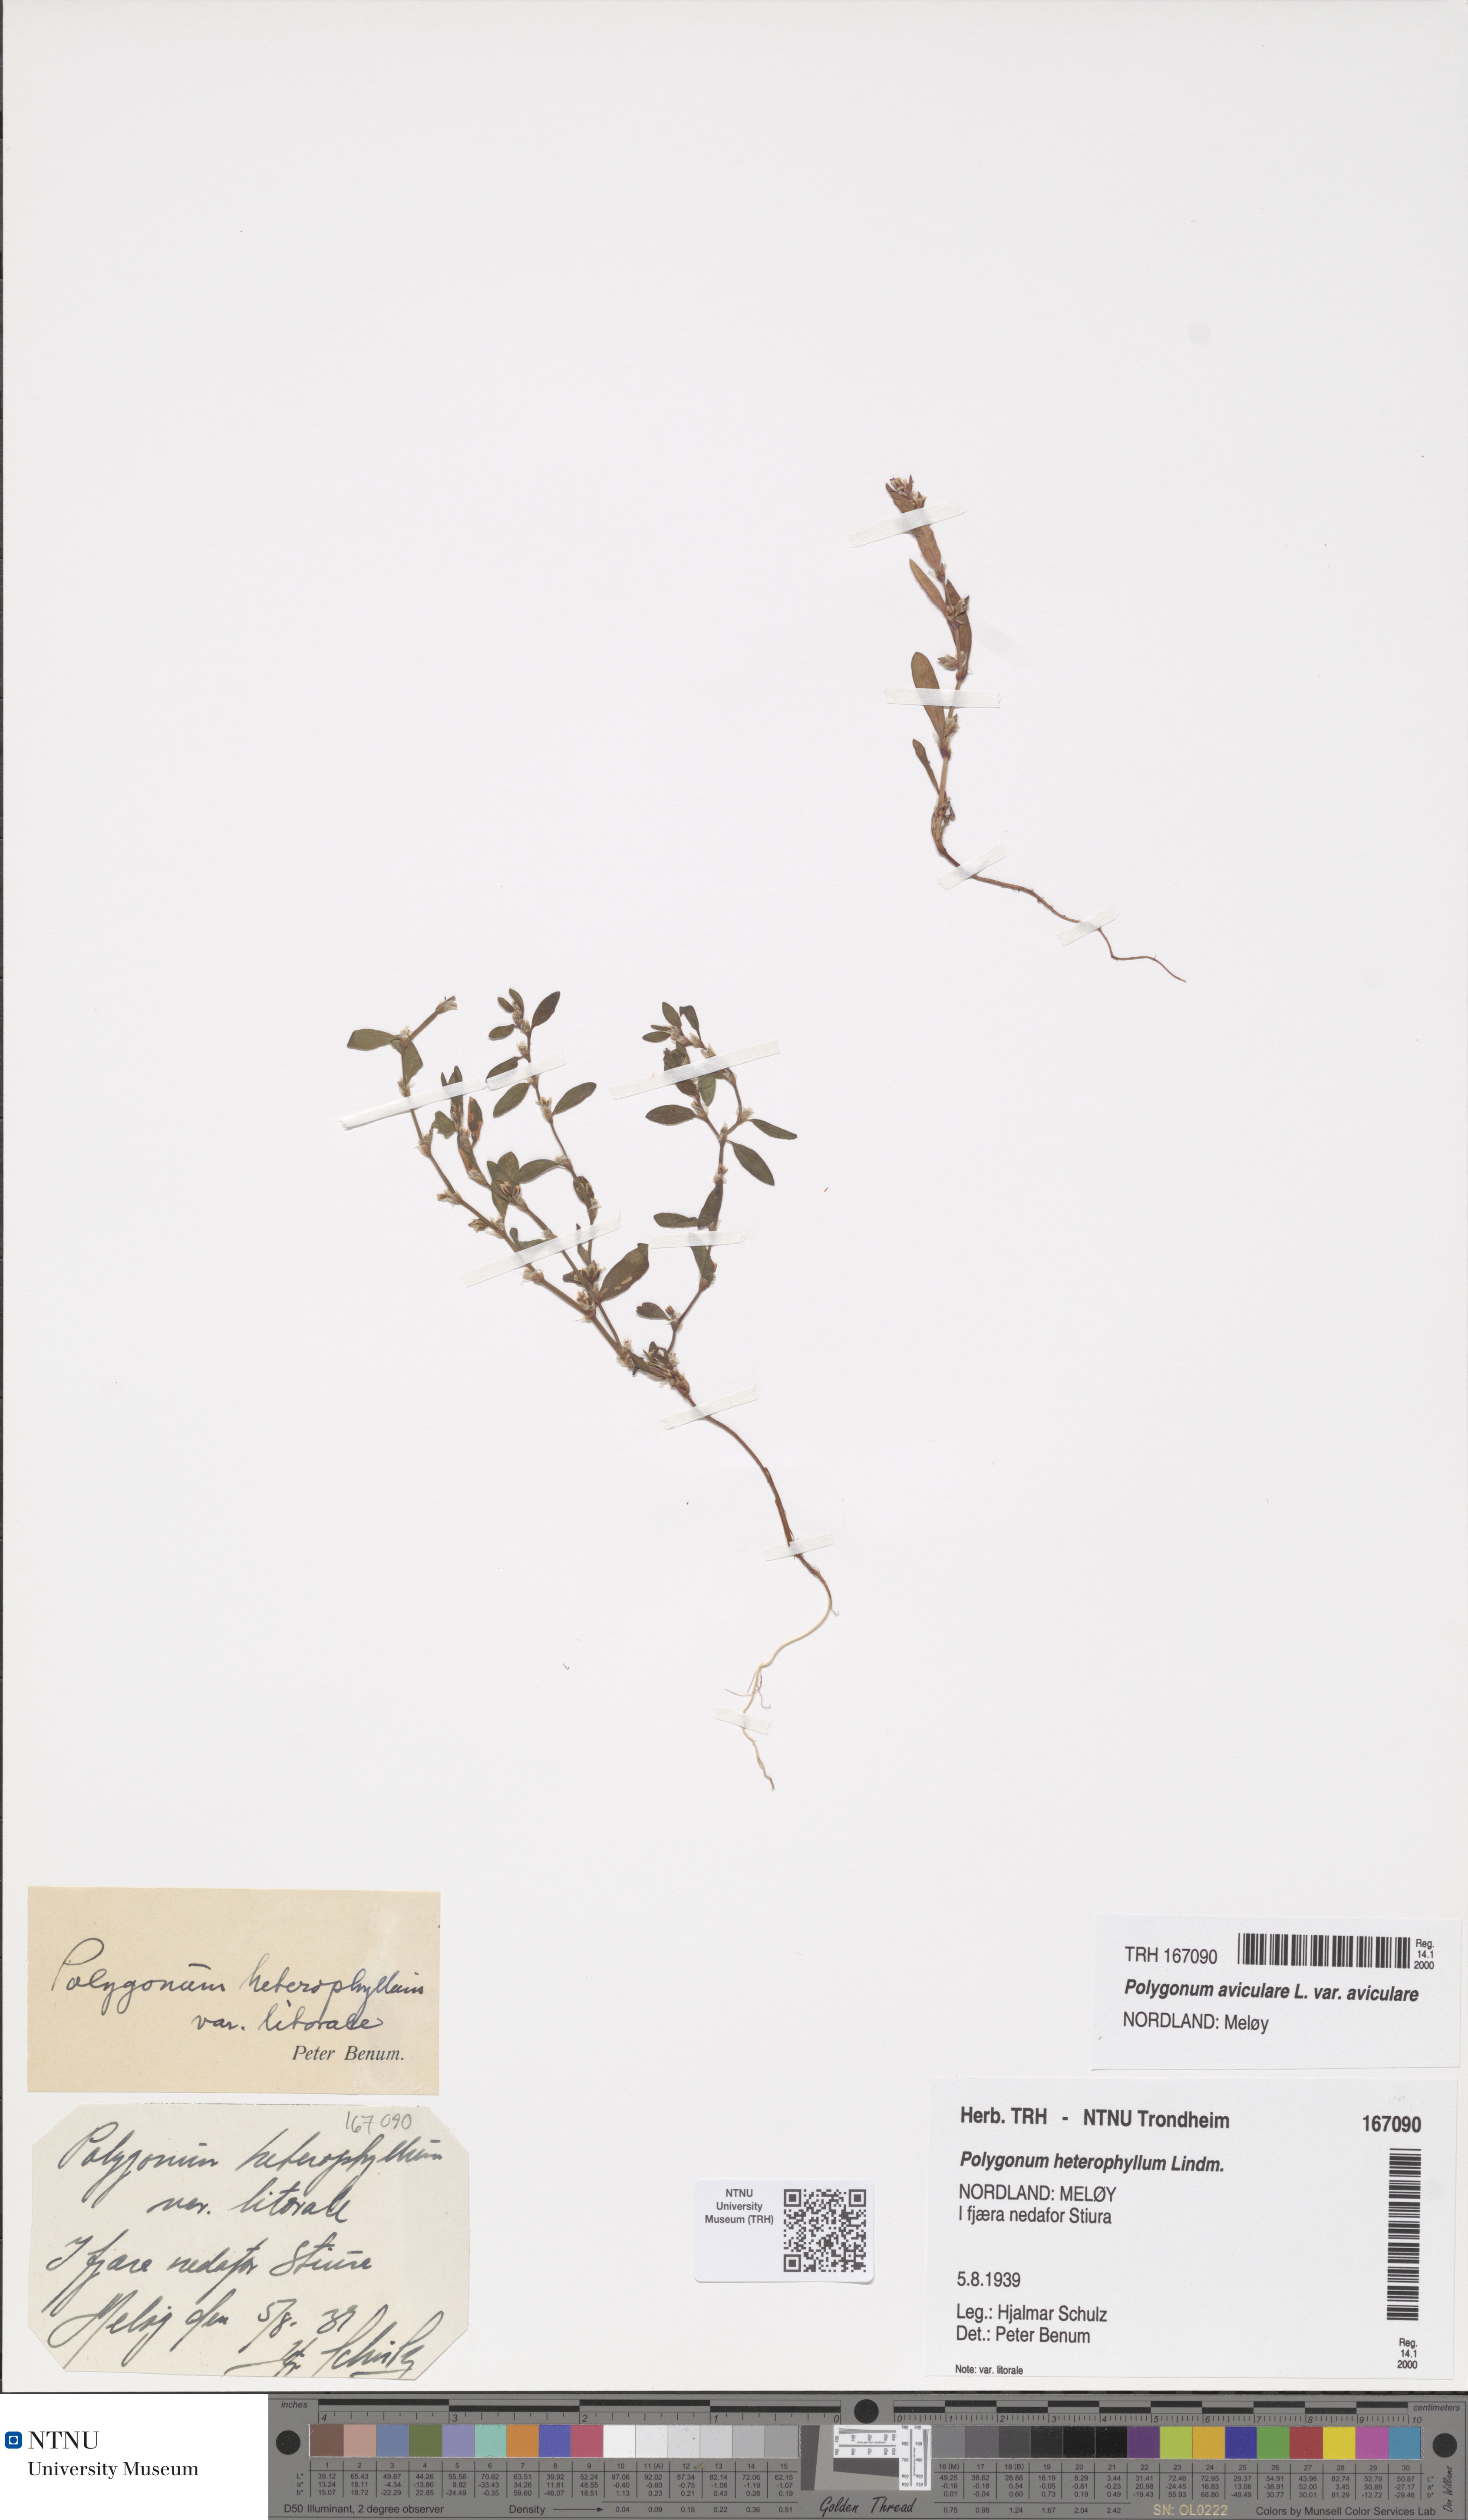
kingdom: Plantae
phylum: Tracheophyta
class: Magnoliopsida
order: Caryophyllales
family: Polygonaceae
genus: Polygonum
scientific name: Polygonum aviculare
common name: Prostrate knotweed
